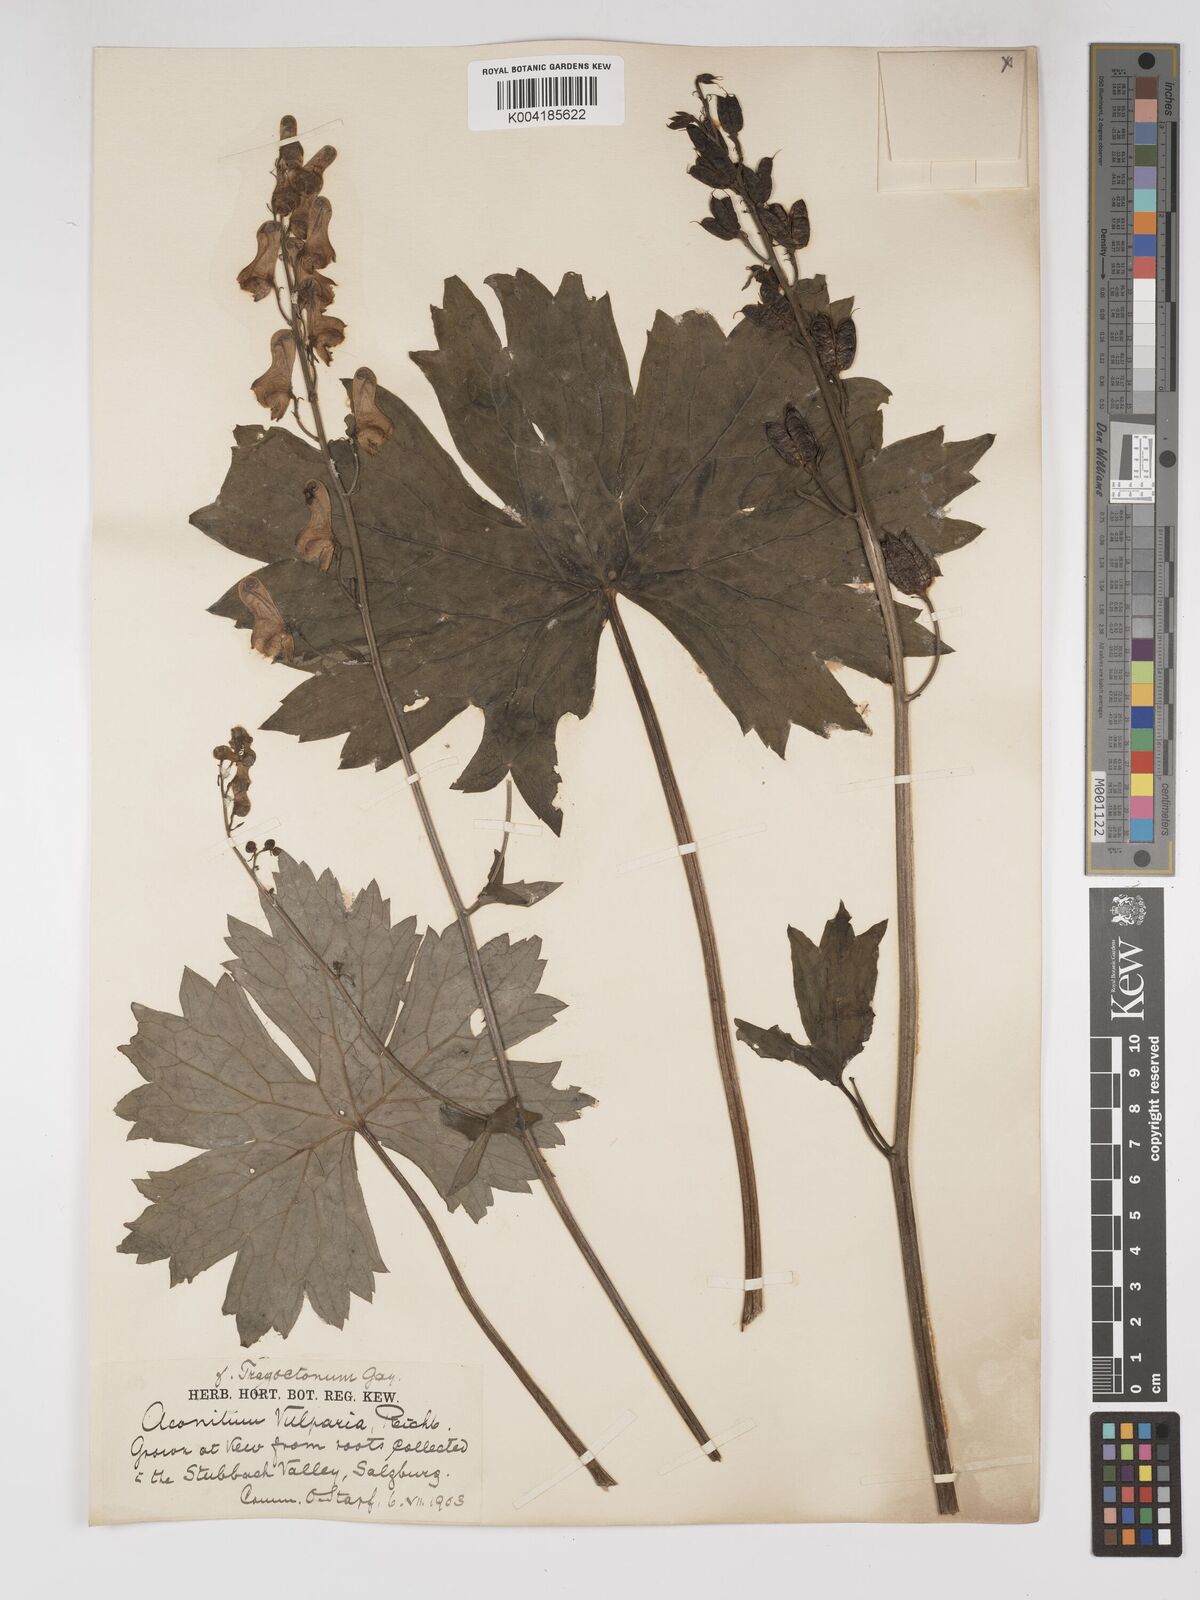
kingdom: Plantae
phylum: Tracheophyta
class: Magnoliopsida
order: Ranunculales
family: Ranunculaceae
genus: Aconitum
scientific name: Aconitum lycoctonum
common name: Wolf's-bane
